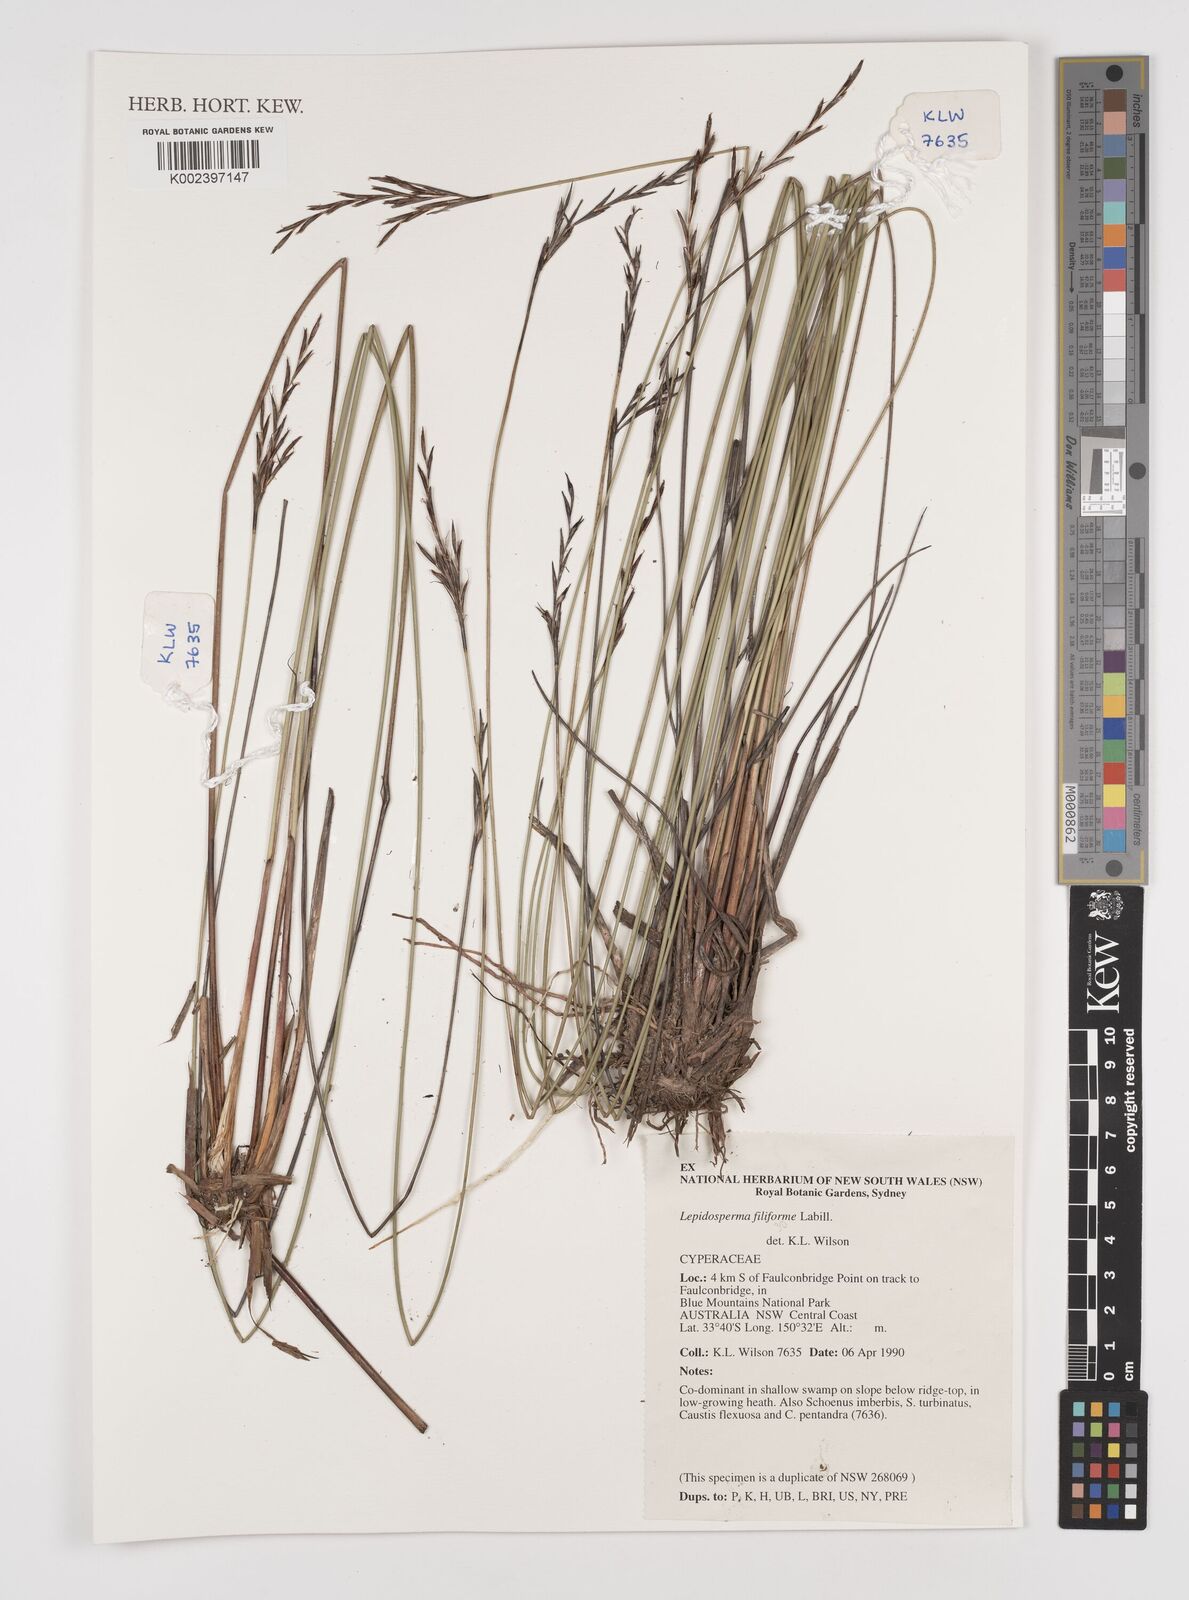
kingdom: Plantae
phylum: Tracheophyta
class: Liliopsida
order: Poales
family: Cyperaceae
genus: Lepidosperma
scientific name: Lepidosperma filiforme
